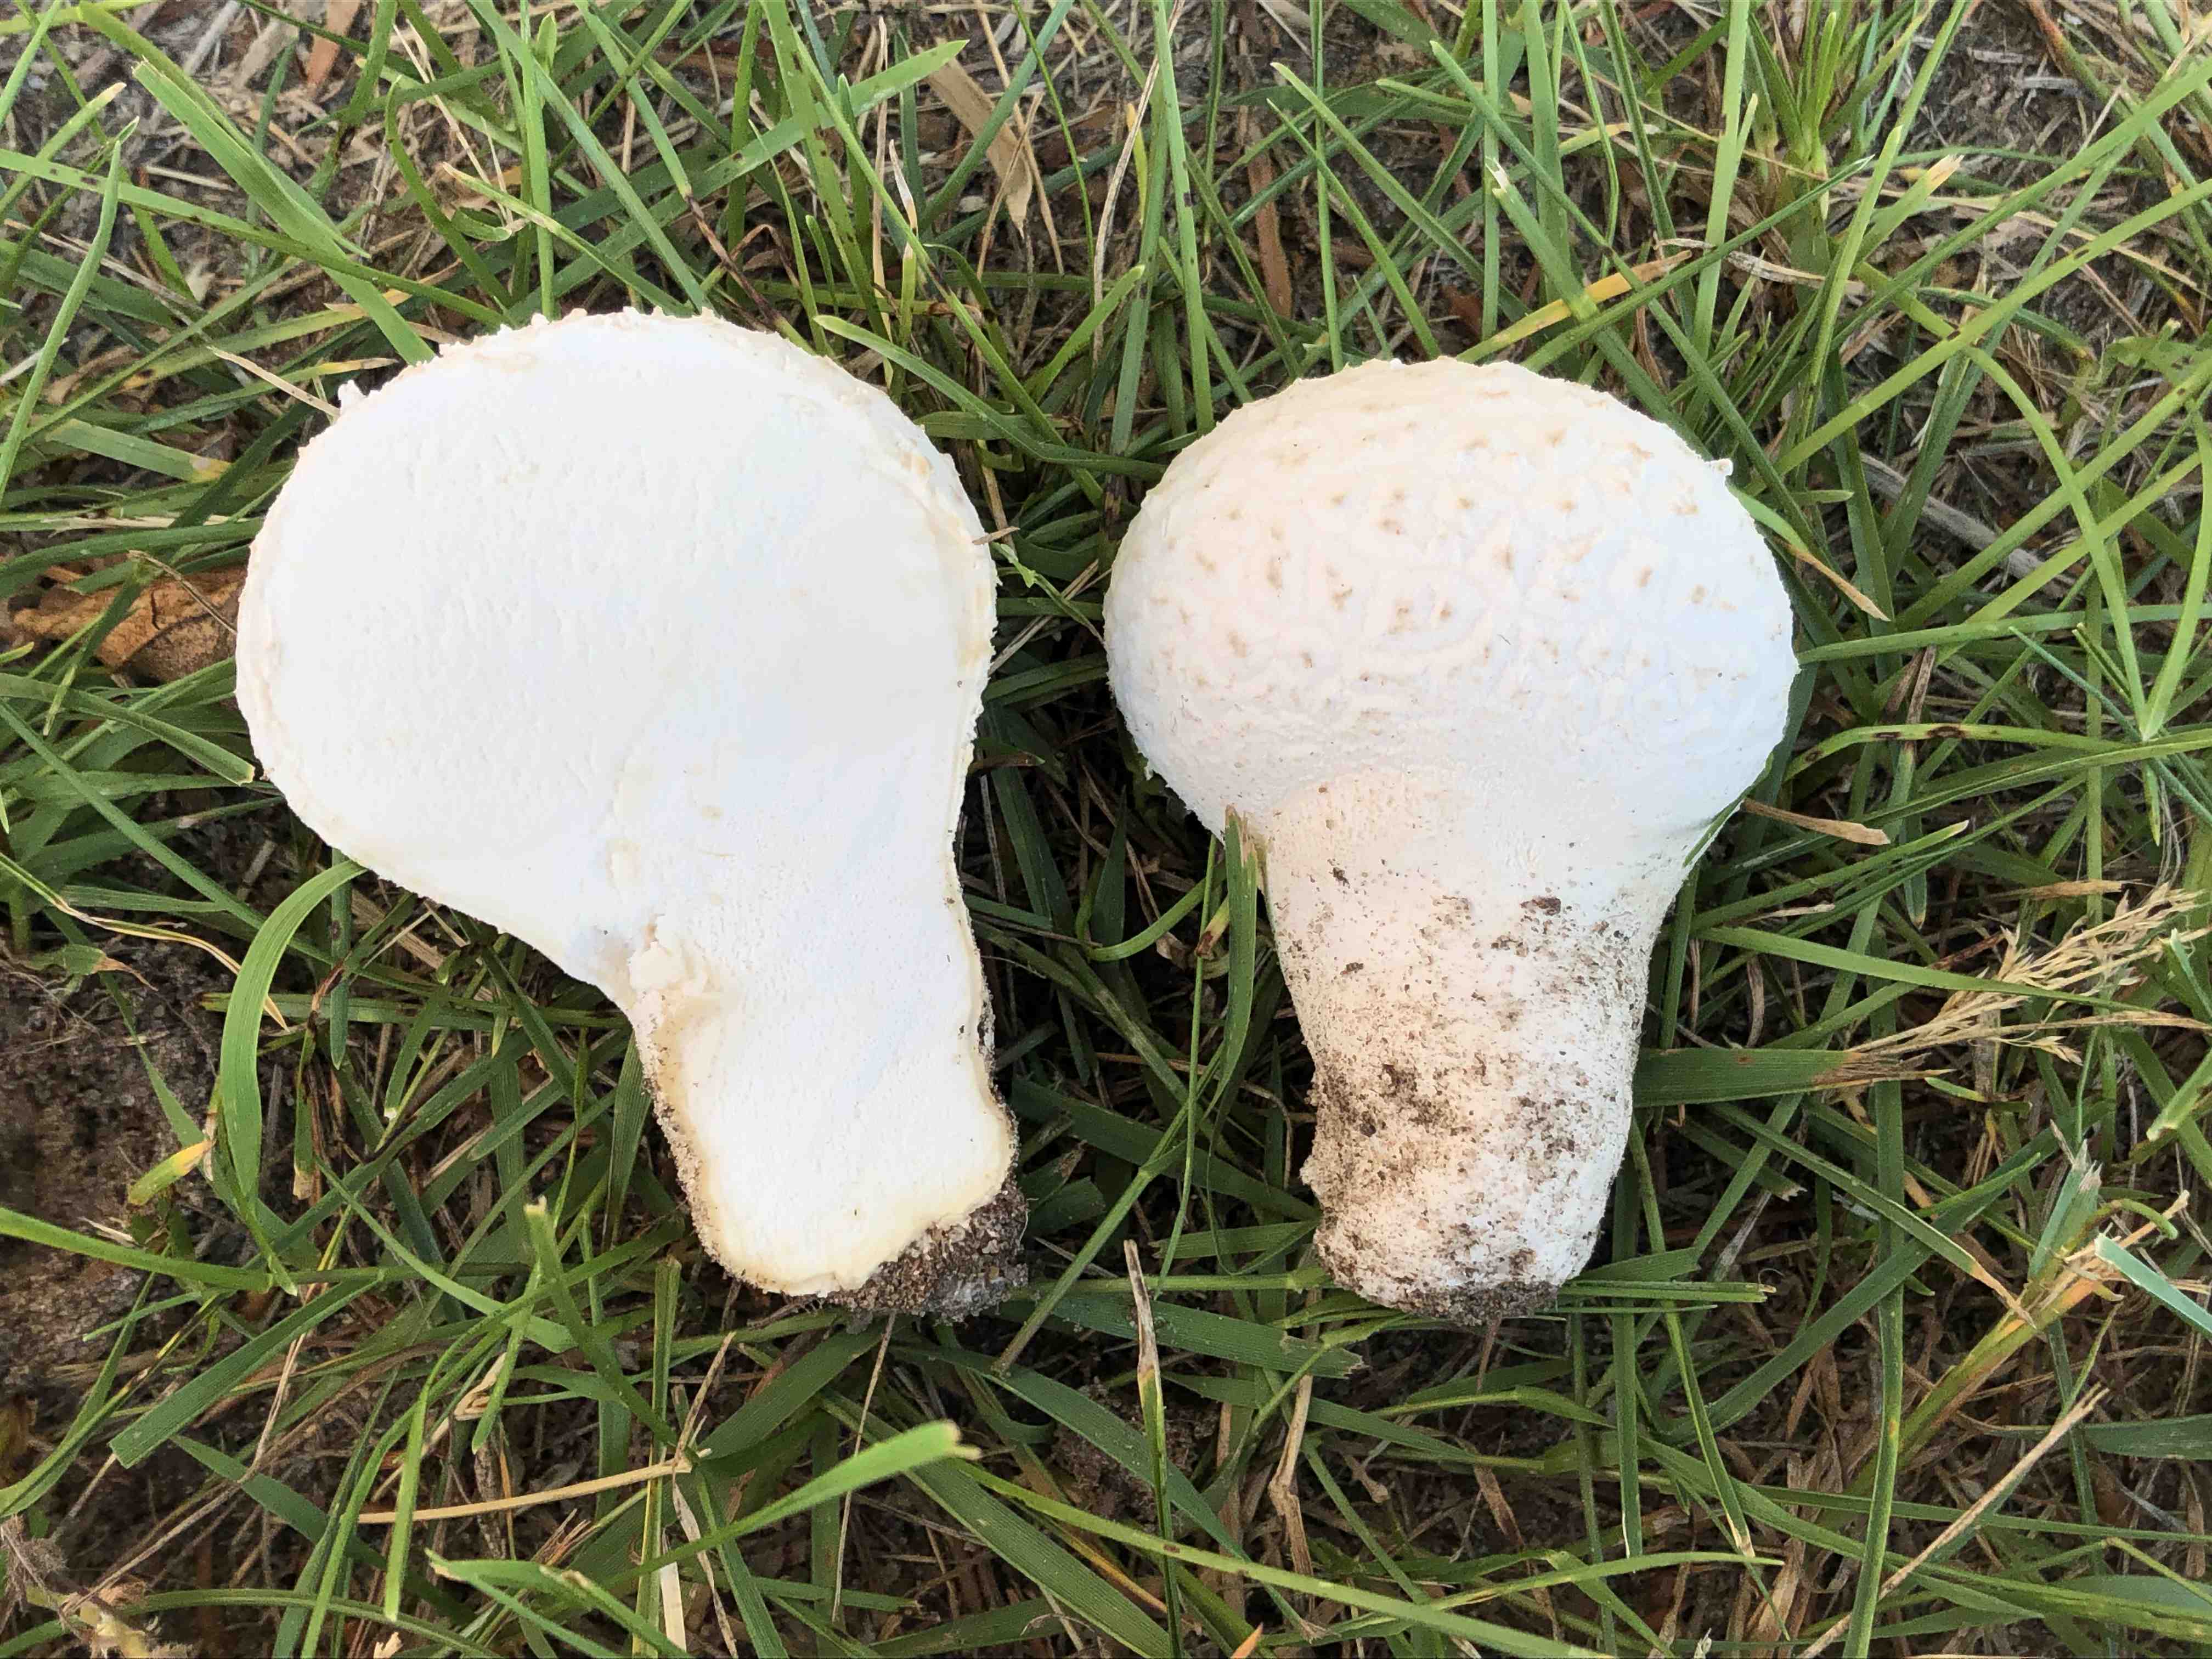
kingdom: Fungi
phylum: Basidiomycota
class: Agaricomycetes
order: Agaricales
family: Agaricaceae
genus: Lycoperdon
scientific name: Lycoperdon
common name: støvbold
